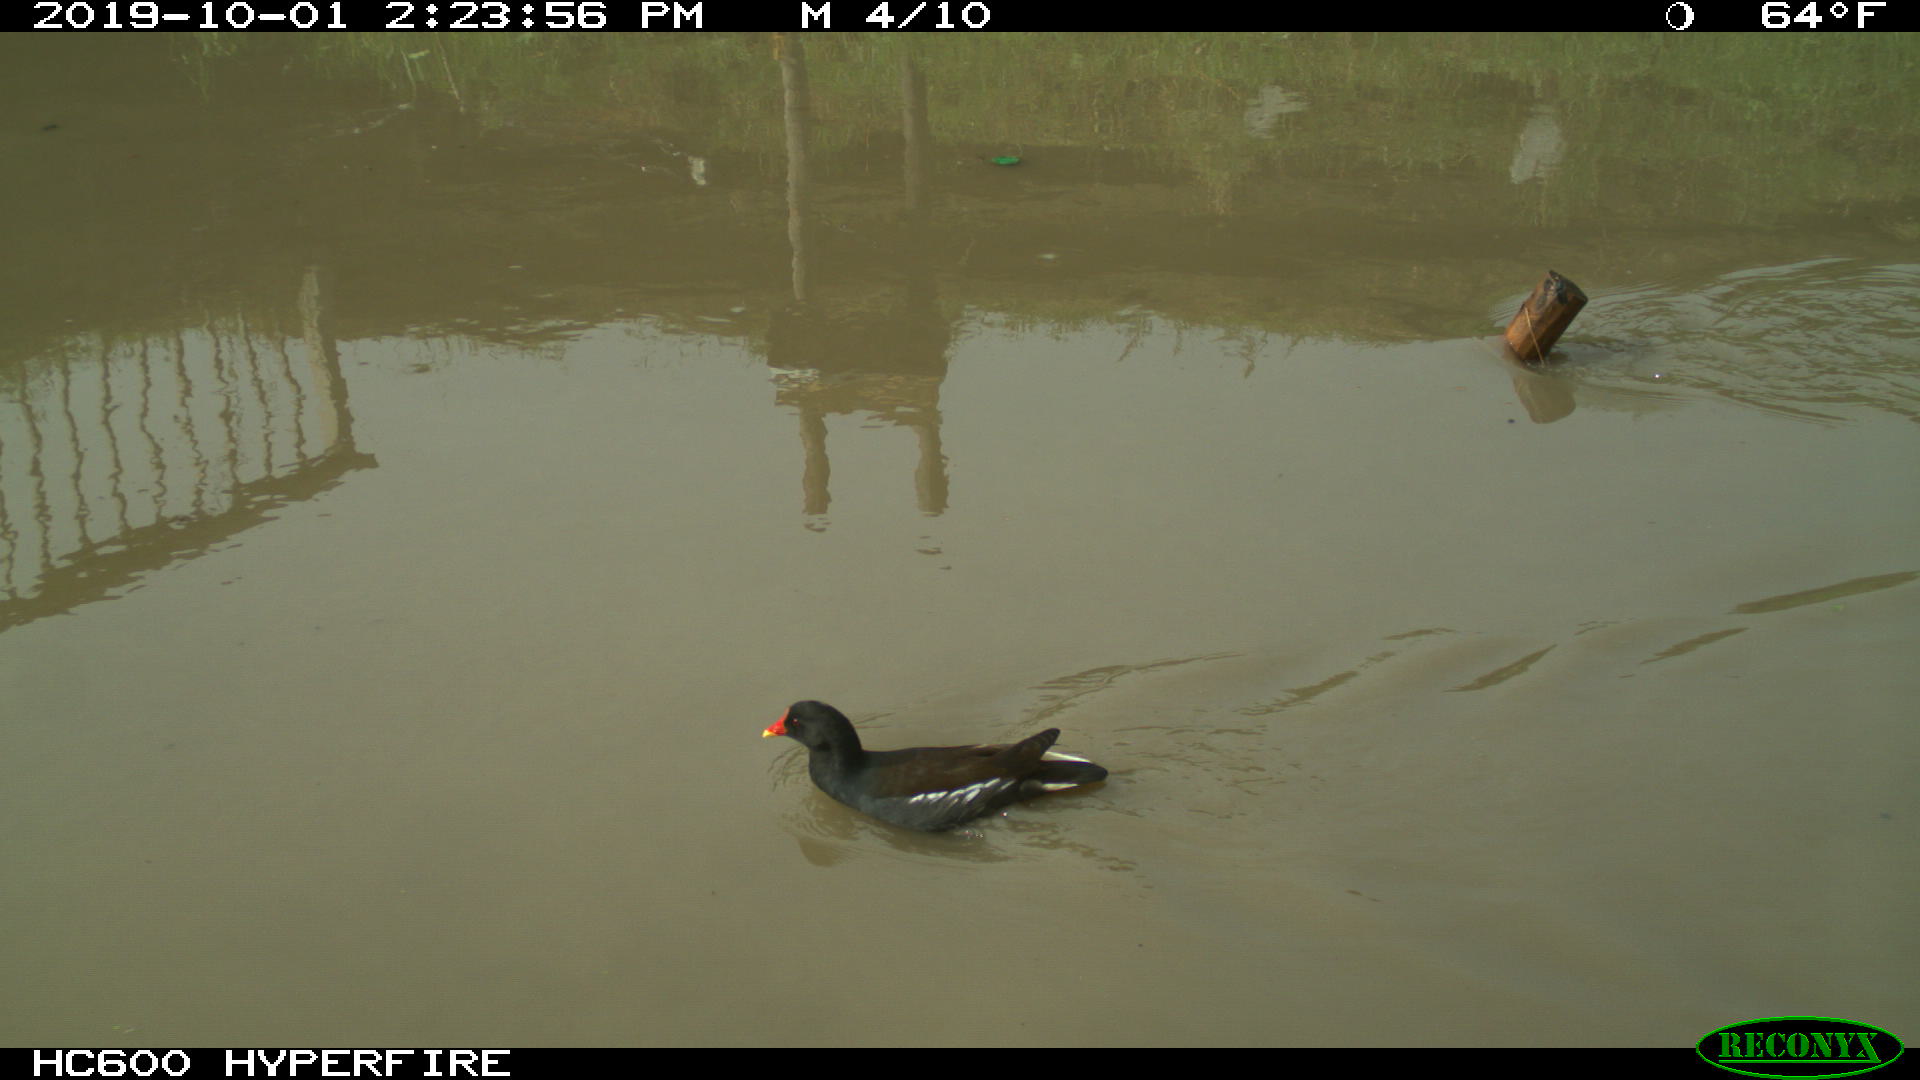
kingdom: Animalia
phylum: Chordata
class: Aves
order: Gruiformes
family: Rallidae
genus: Gallinula
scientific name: Gallinula chloropus
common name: Common moorhen
